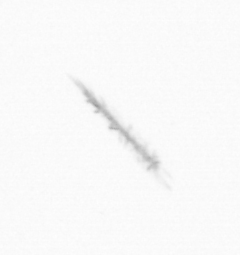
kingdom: Chromista
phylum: Ochrophyta
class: Bacillariophyceae
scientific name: Bacillariophyceae
